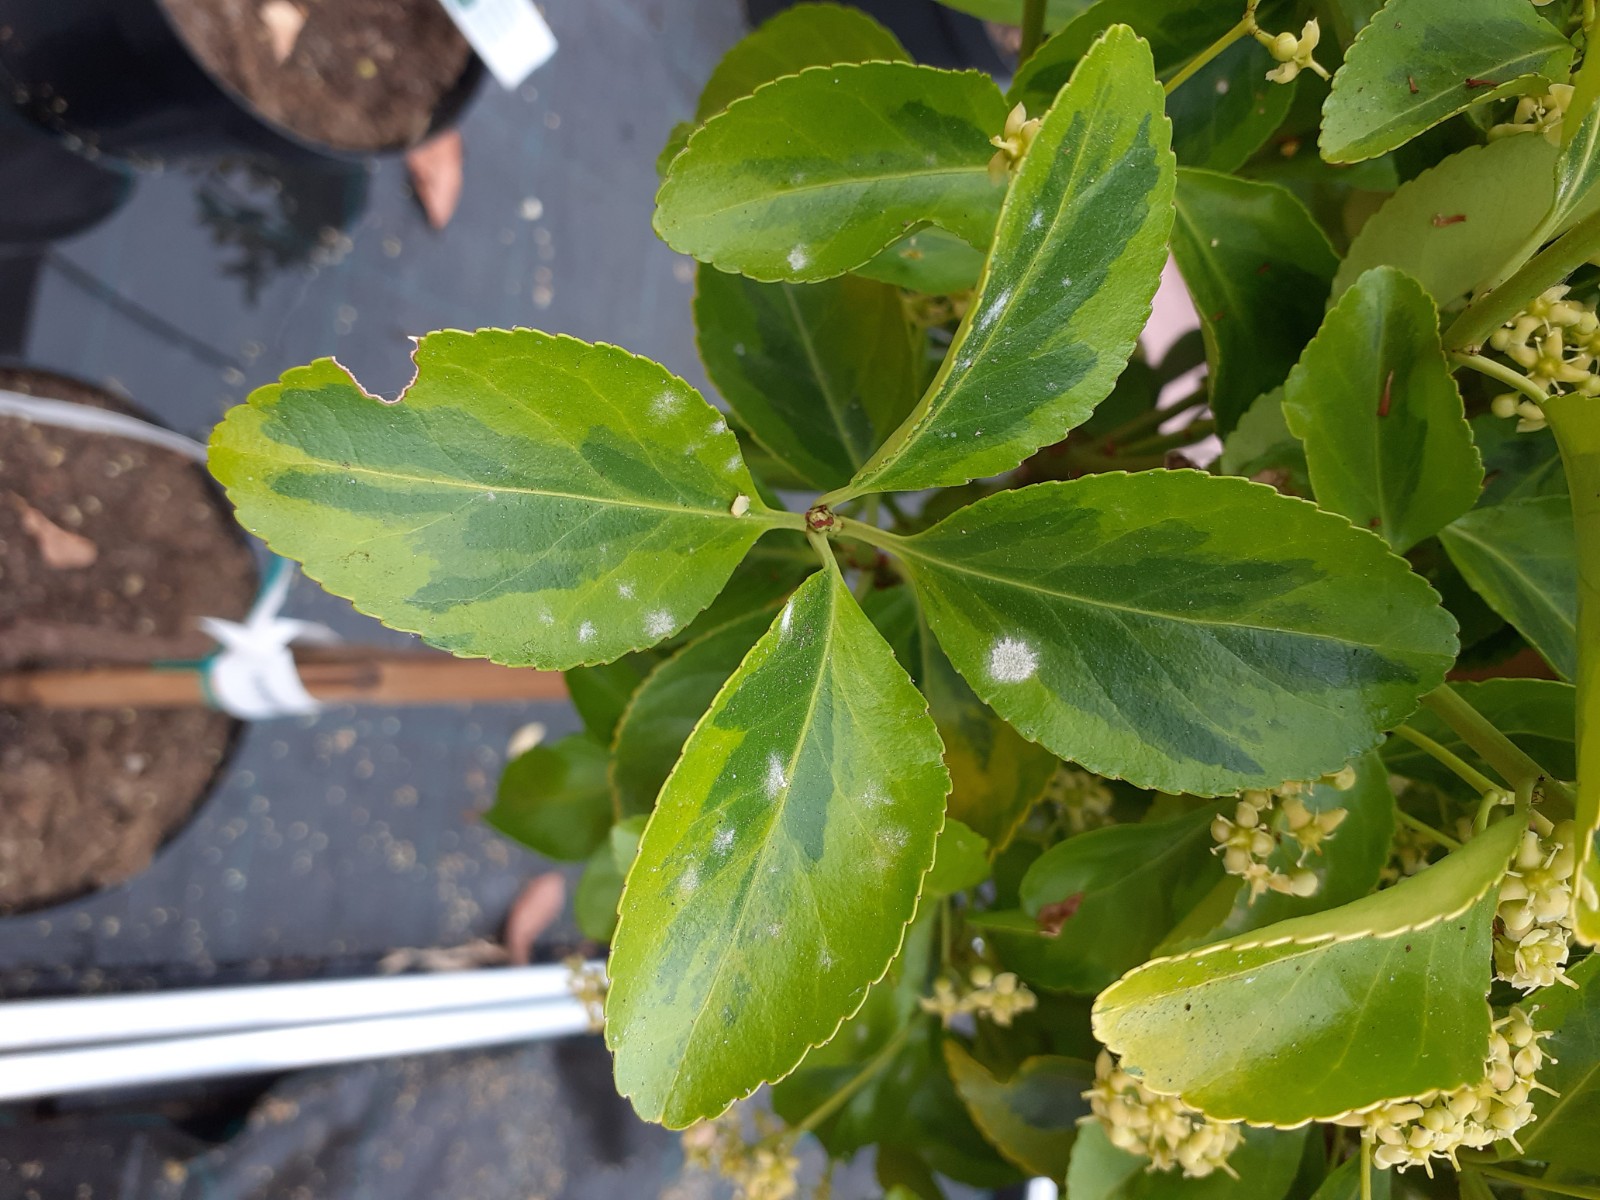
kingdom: Fungi
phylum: Ascomycota
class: Leotiomycetes
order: Helotiales
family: Erysiphaceae
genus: Erysiphe
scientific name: Erysiphe euonymicola
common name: Spindletree mildew
